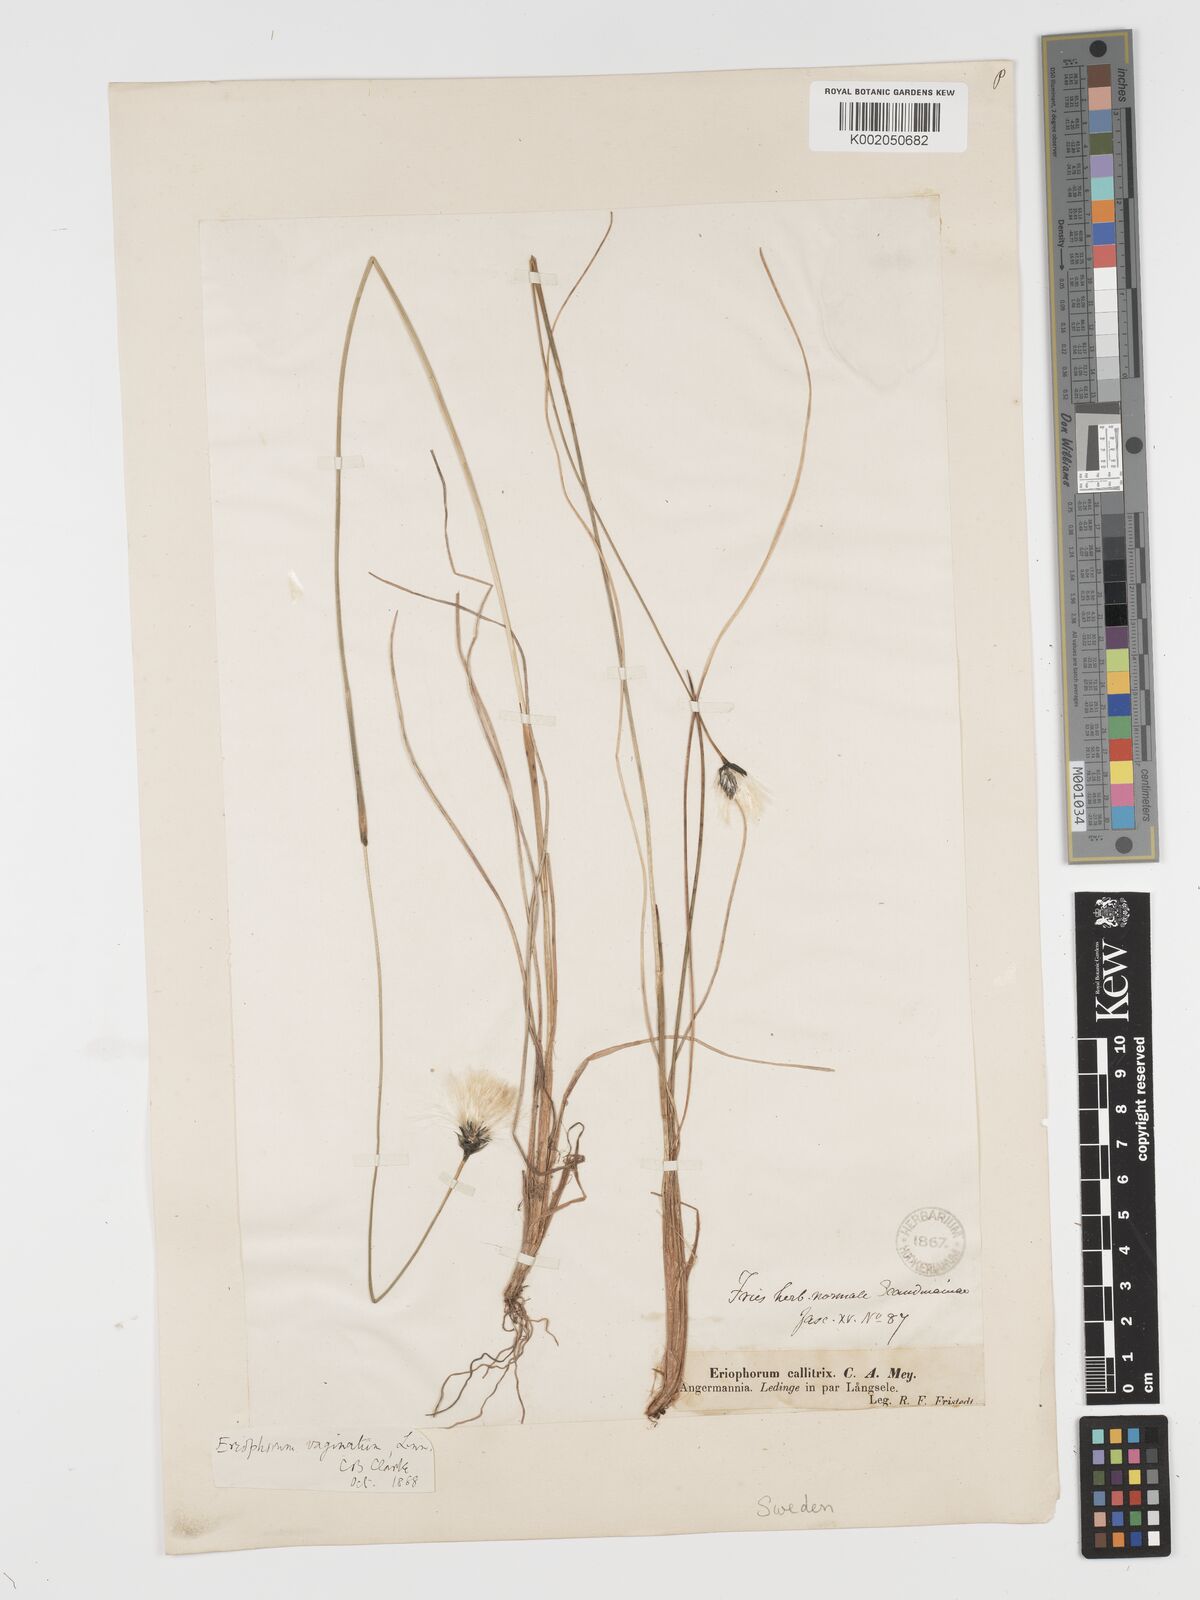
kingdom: Plantae
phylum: Tracheophyta
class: Liliopsida
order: Poales
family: Cyperaceae
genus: Eriophorum
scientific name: Eriophorum vaginatum
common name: Hare's-tail cottongrass
